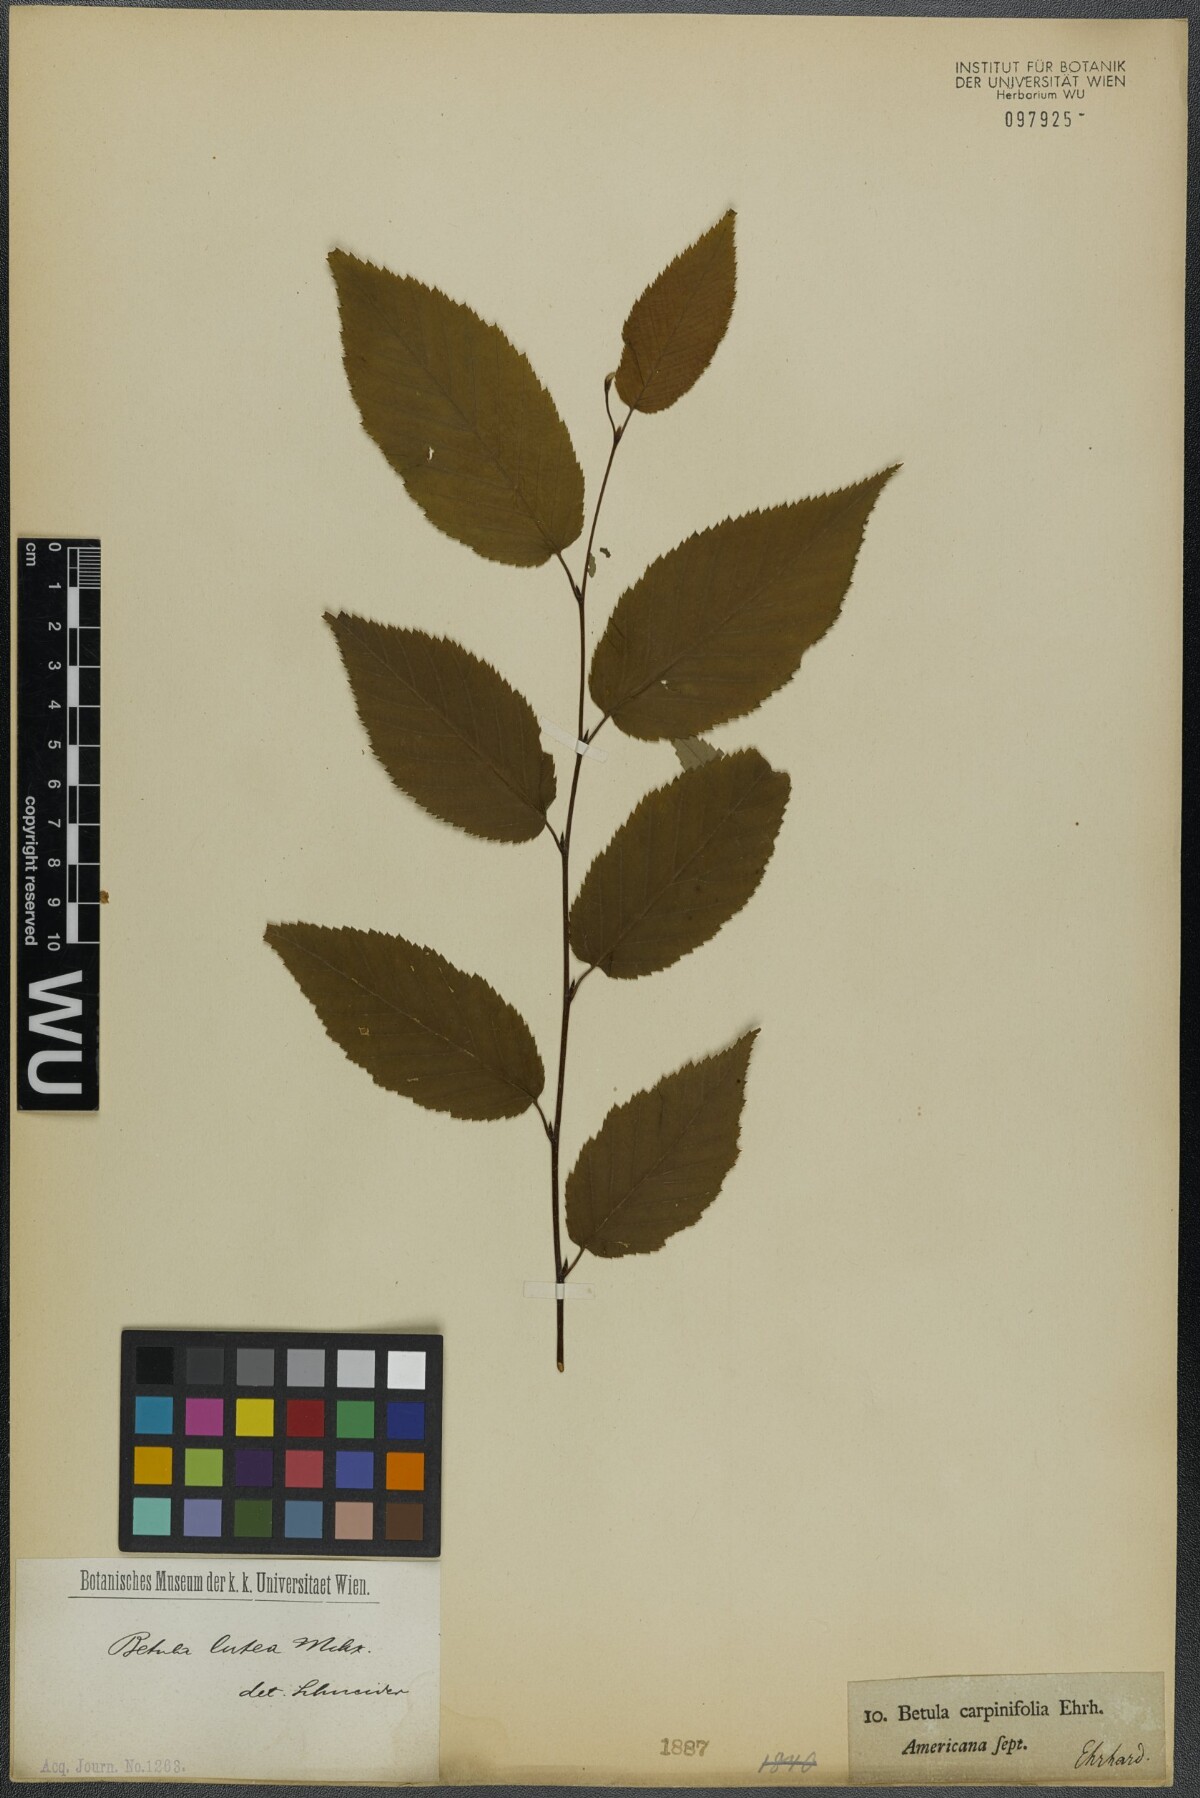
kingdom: Plantae
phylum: Tracheophyta
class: Magnoliopsida
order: Fagales
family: Betulaceae
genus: Betula
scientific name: Betula lenta
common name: Black birch
